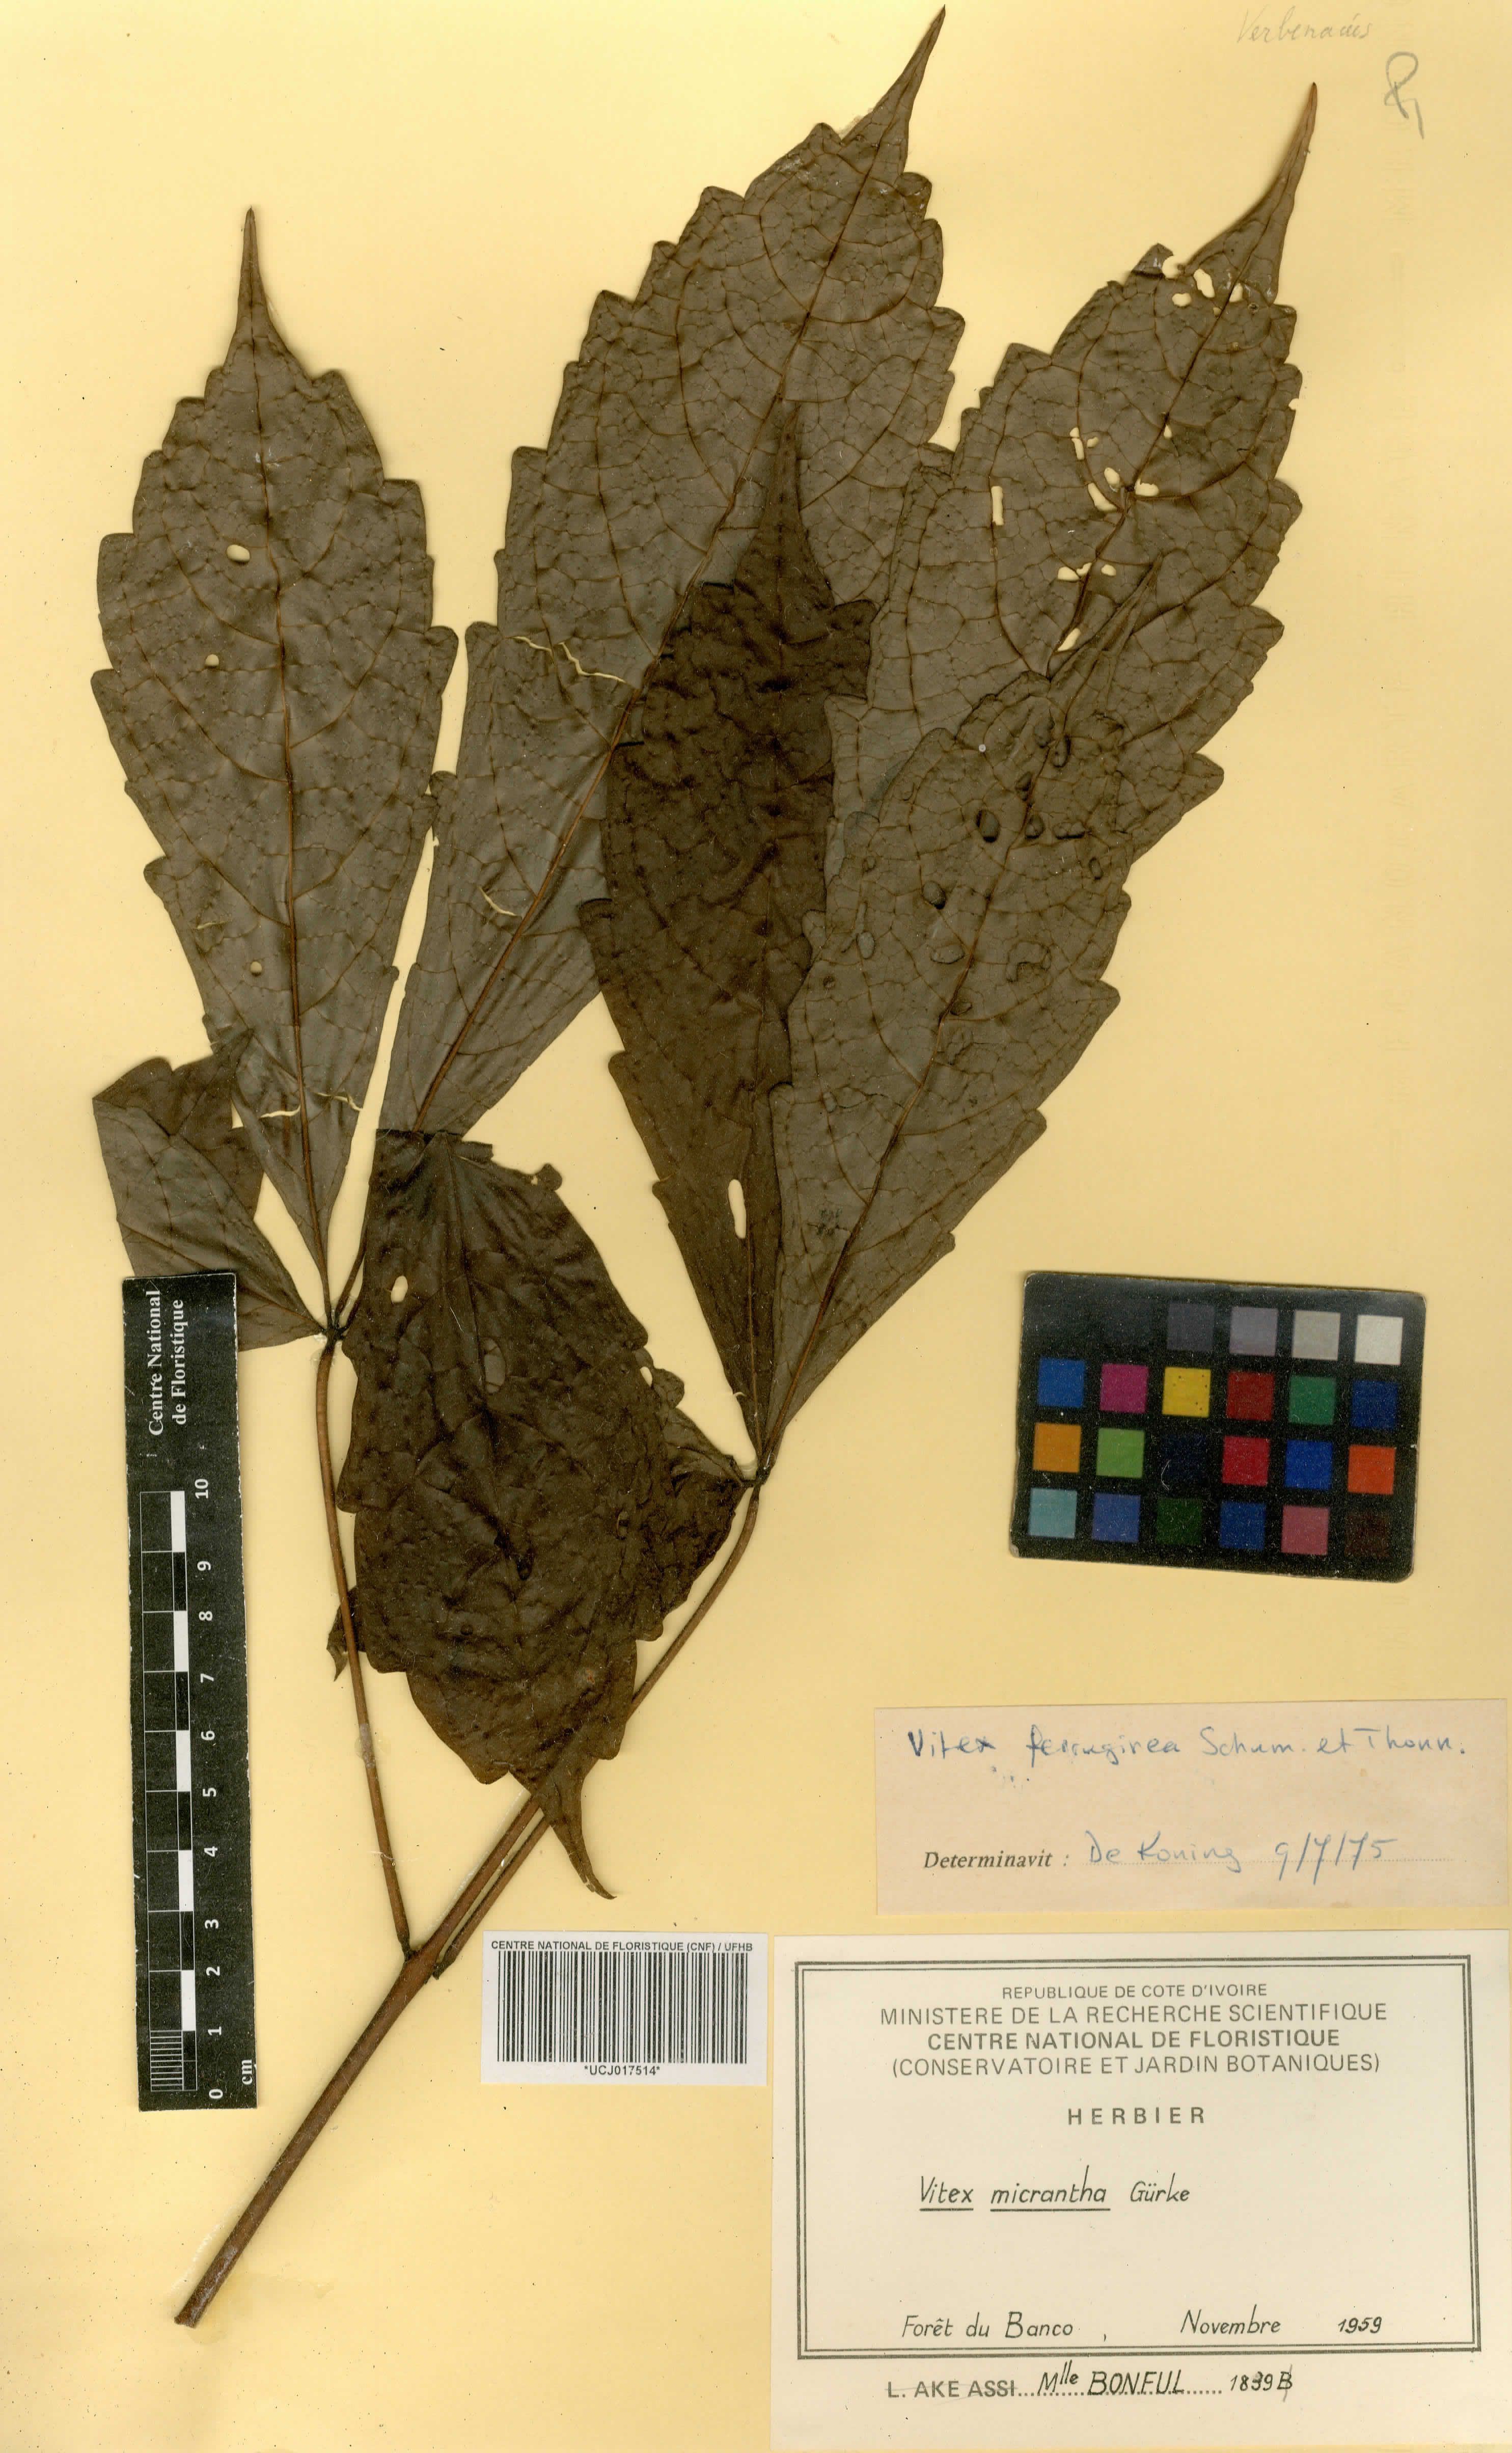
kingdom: Plantae
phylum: Tracheophyta
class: Magnoliopsida
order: Lamiales
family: Lamiaceae
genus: Vitex
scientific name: Vitex micrantha
